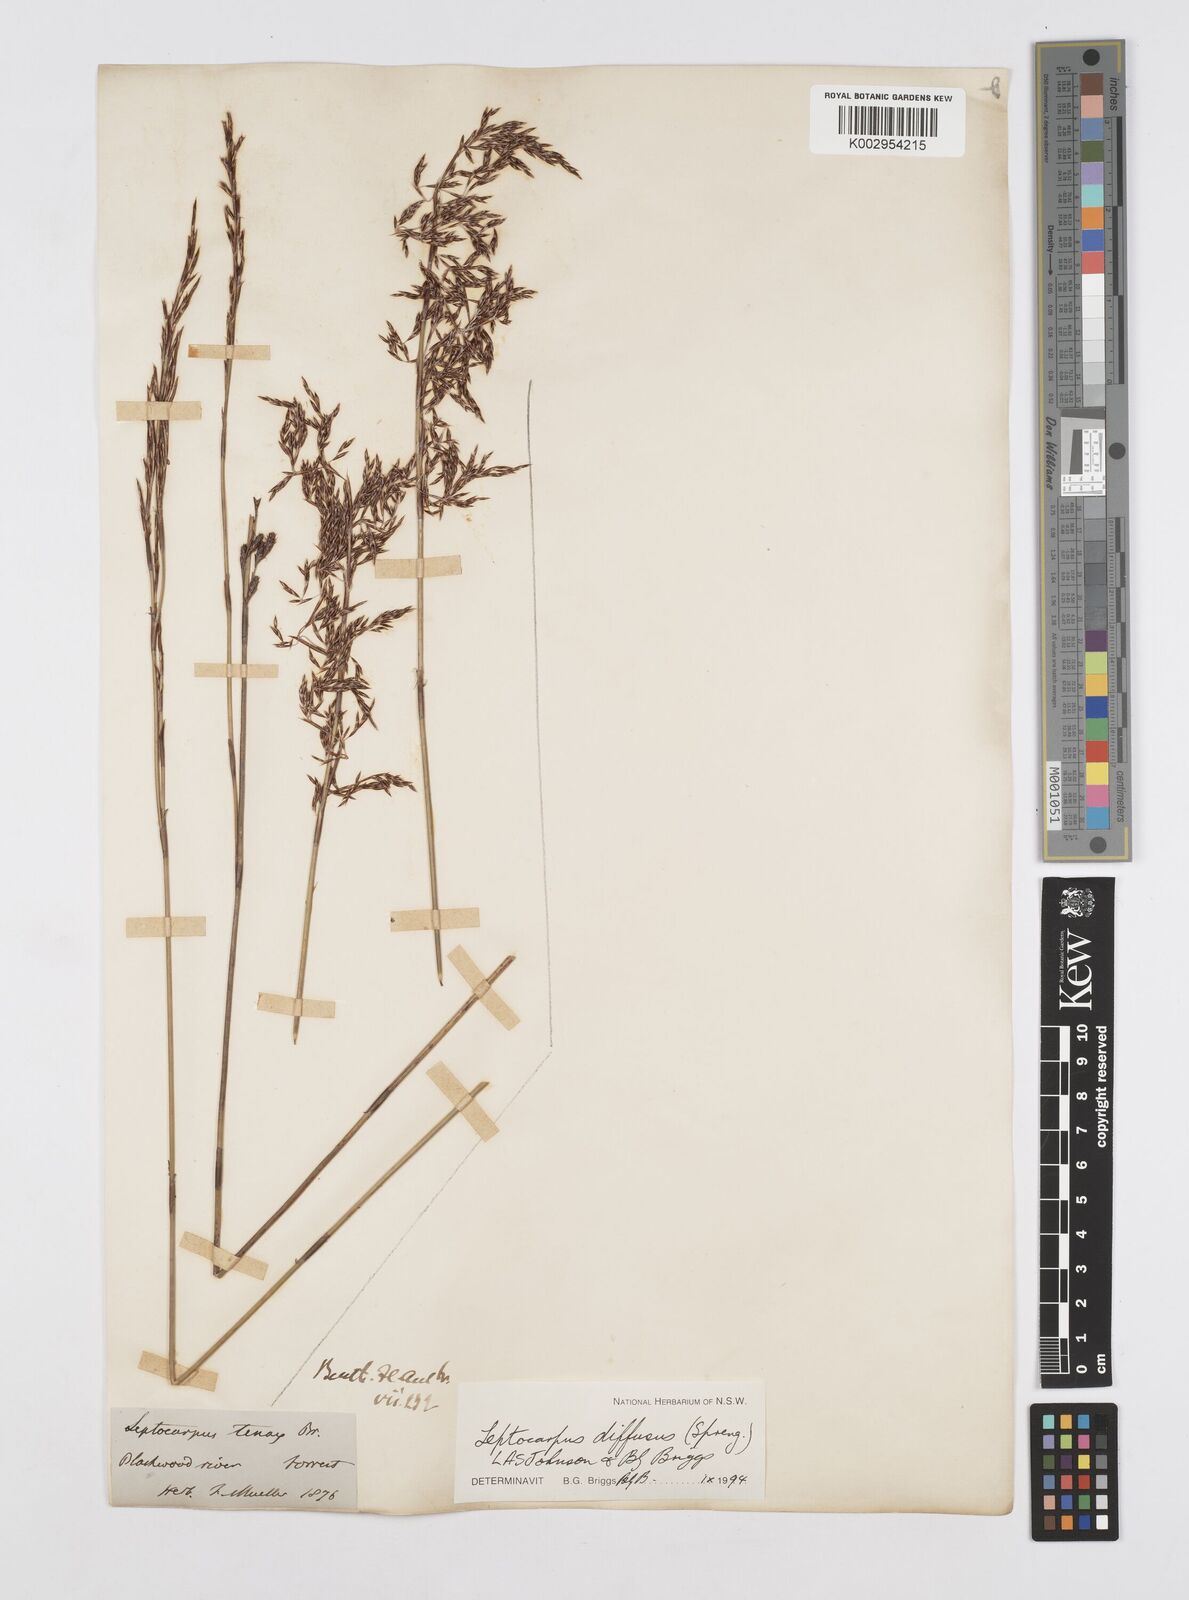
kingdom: Plantae
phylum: Tracheophyta
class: Liliopsida
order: Poales
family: Restionaceae
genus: Leptocarpus
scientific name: Leptocarpus laxus
